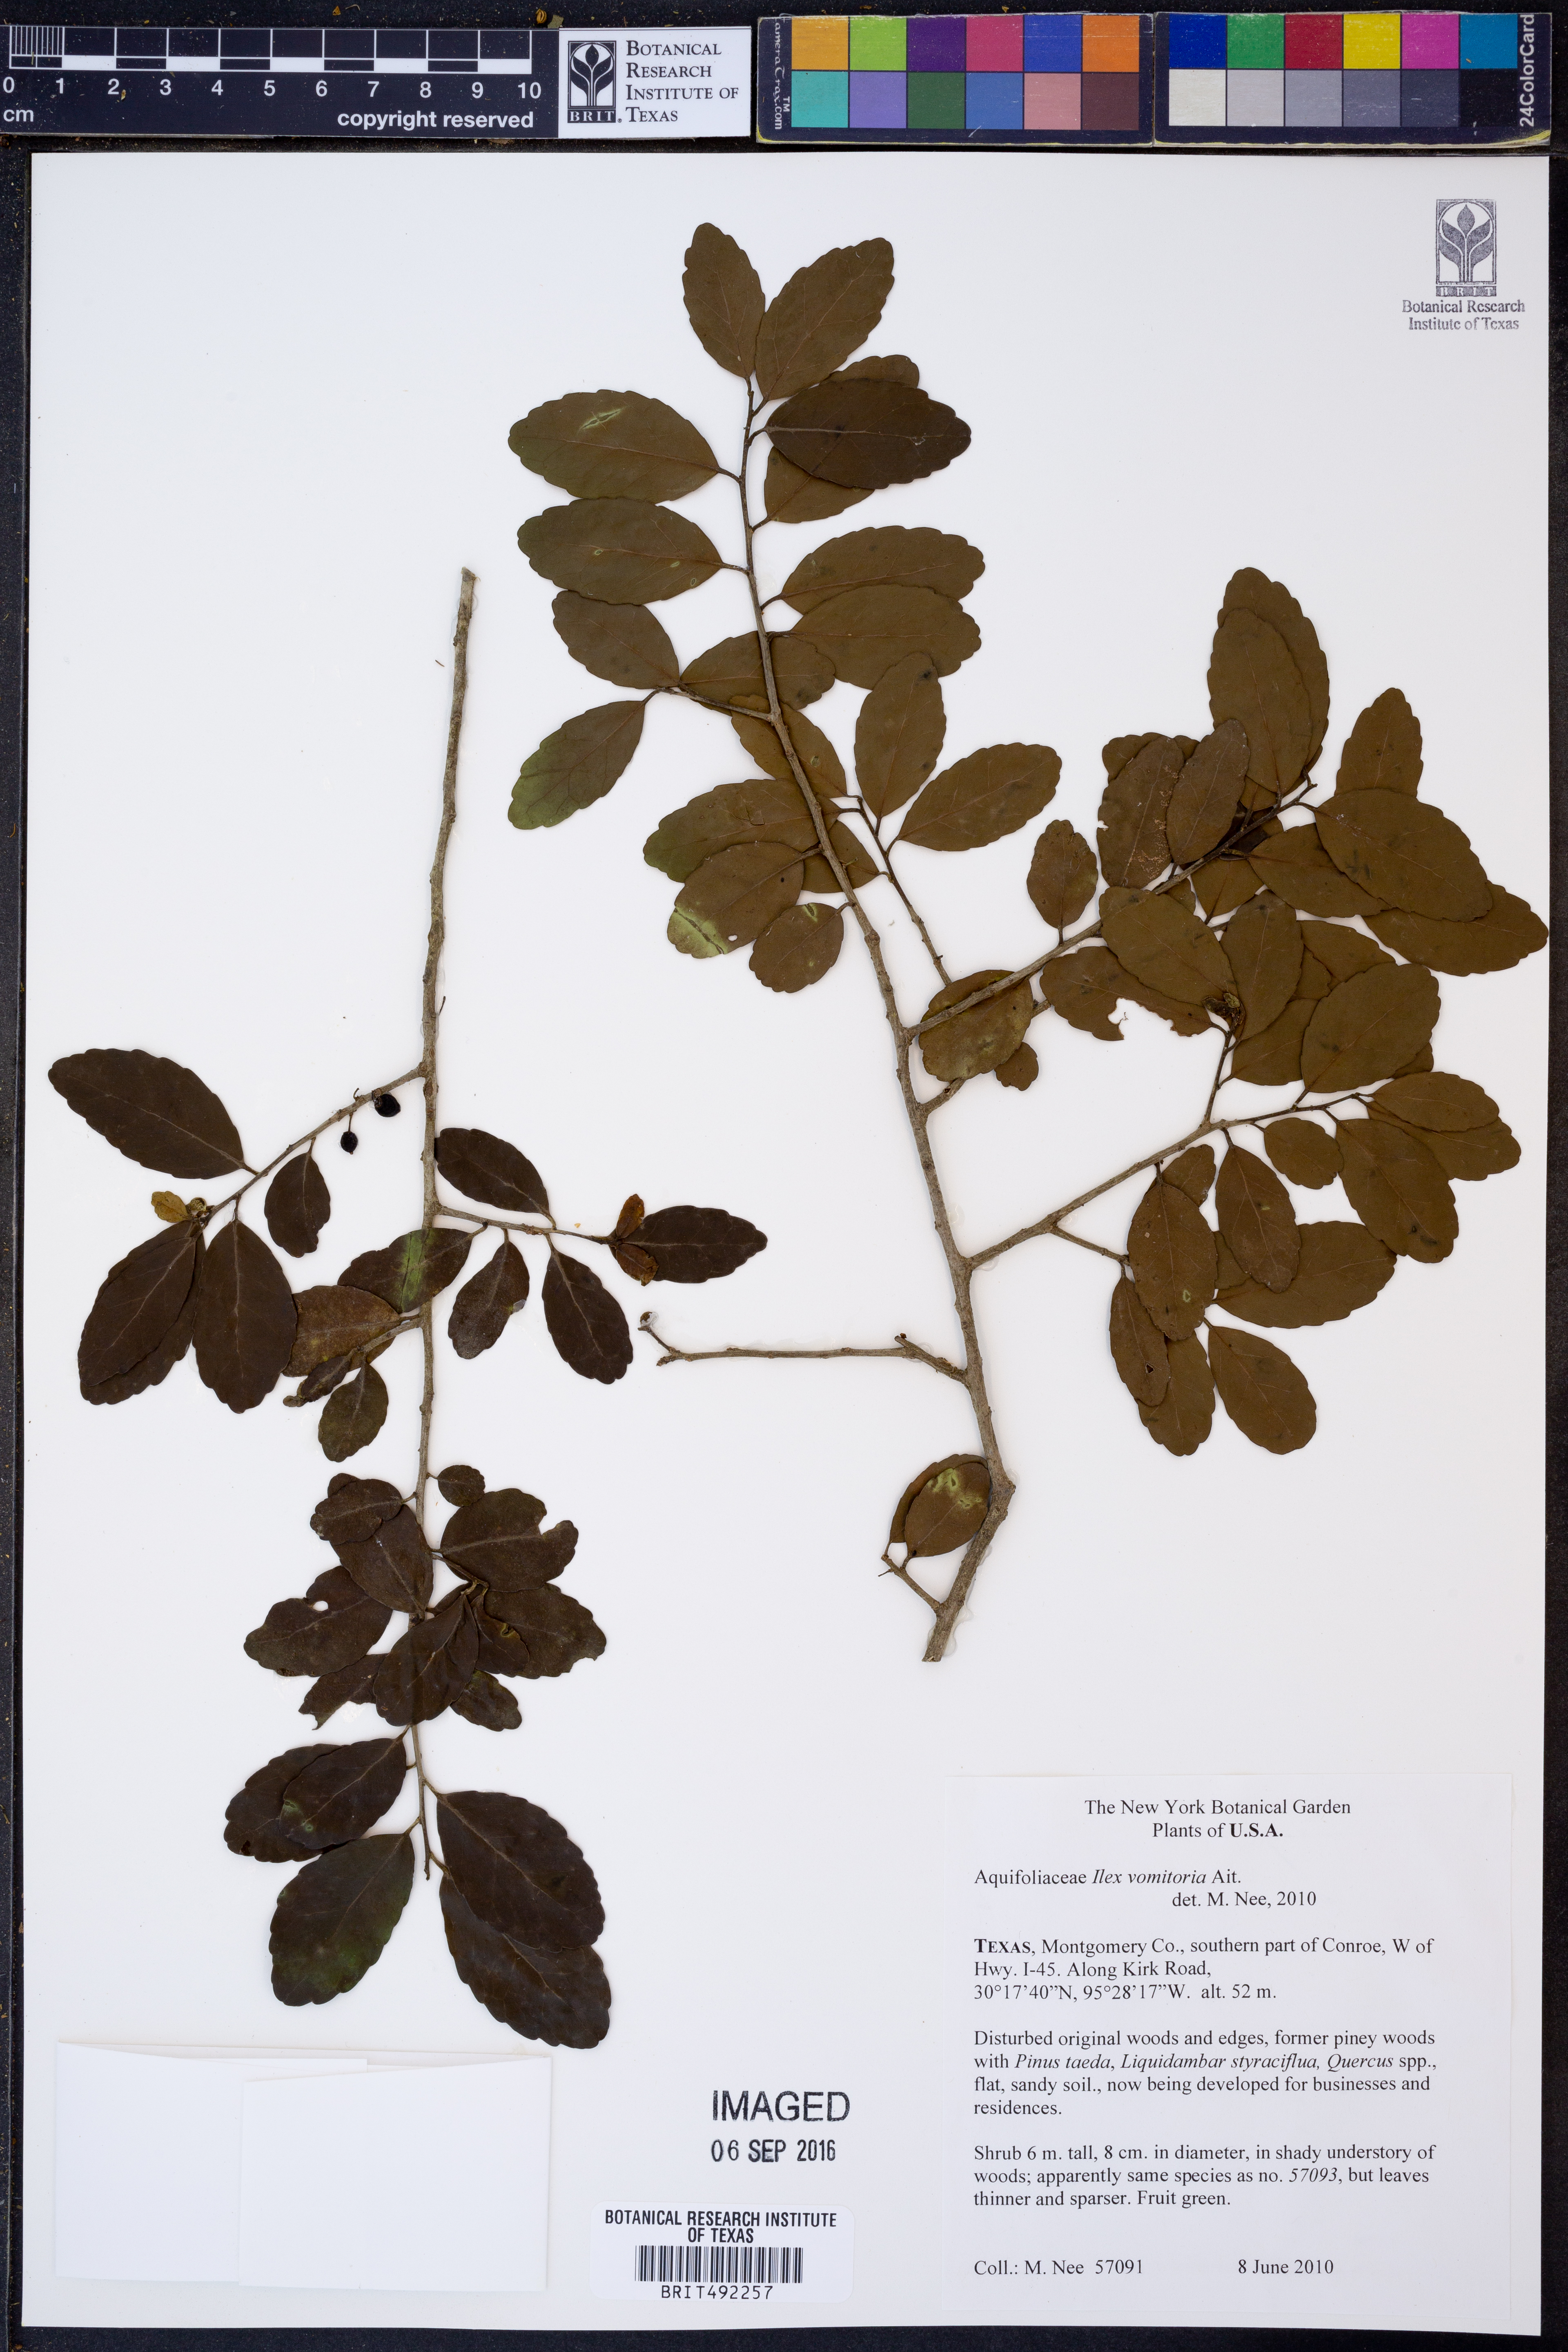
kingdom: Plantae
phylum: Tracheophyta
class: Magnoliopsida
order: Aquifoliales
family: Aquifoliaceae
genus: Ilex
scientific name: Ilex vomitoria
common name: Yaupon holly
